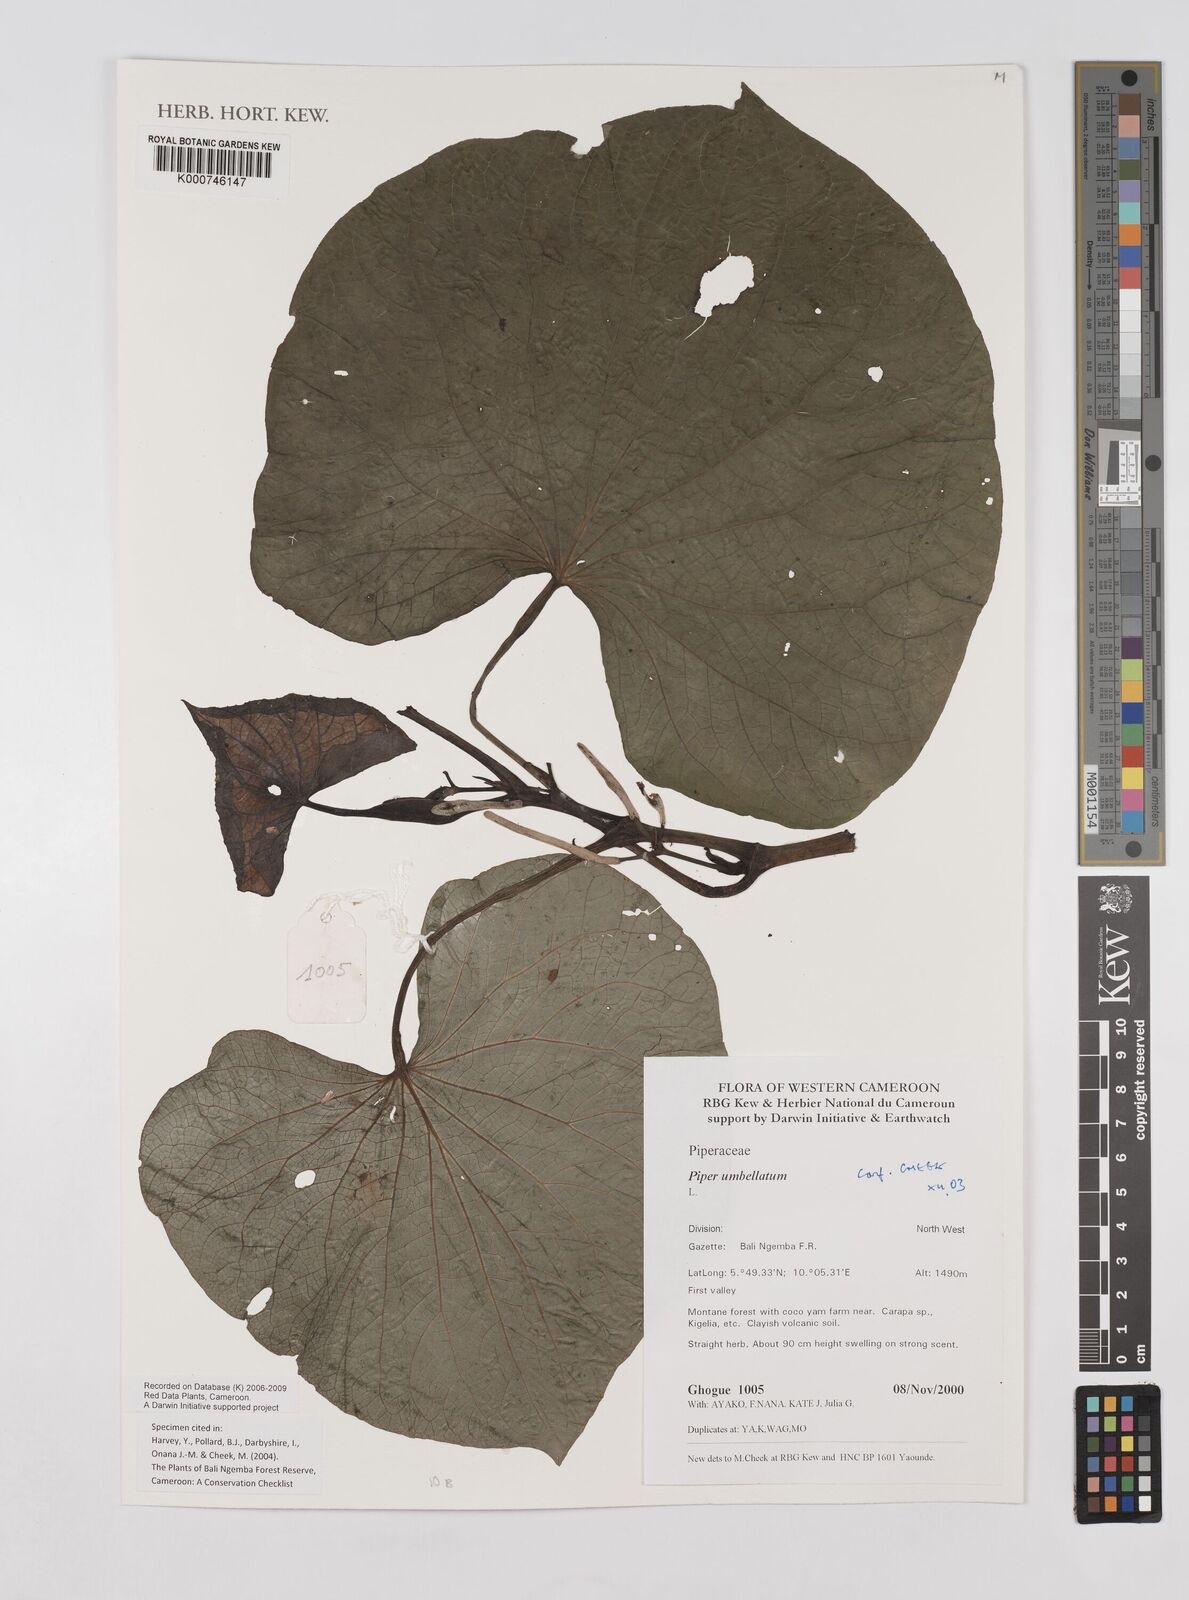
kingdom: Plantae
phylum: Tracheophyta
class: Magnoliopsida
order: Piperales
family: Piperaceae
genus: Piper
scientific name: Piper umbellatum
